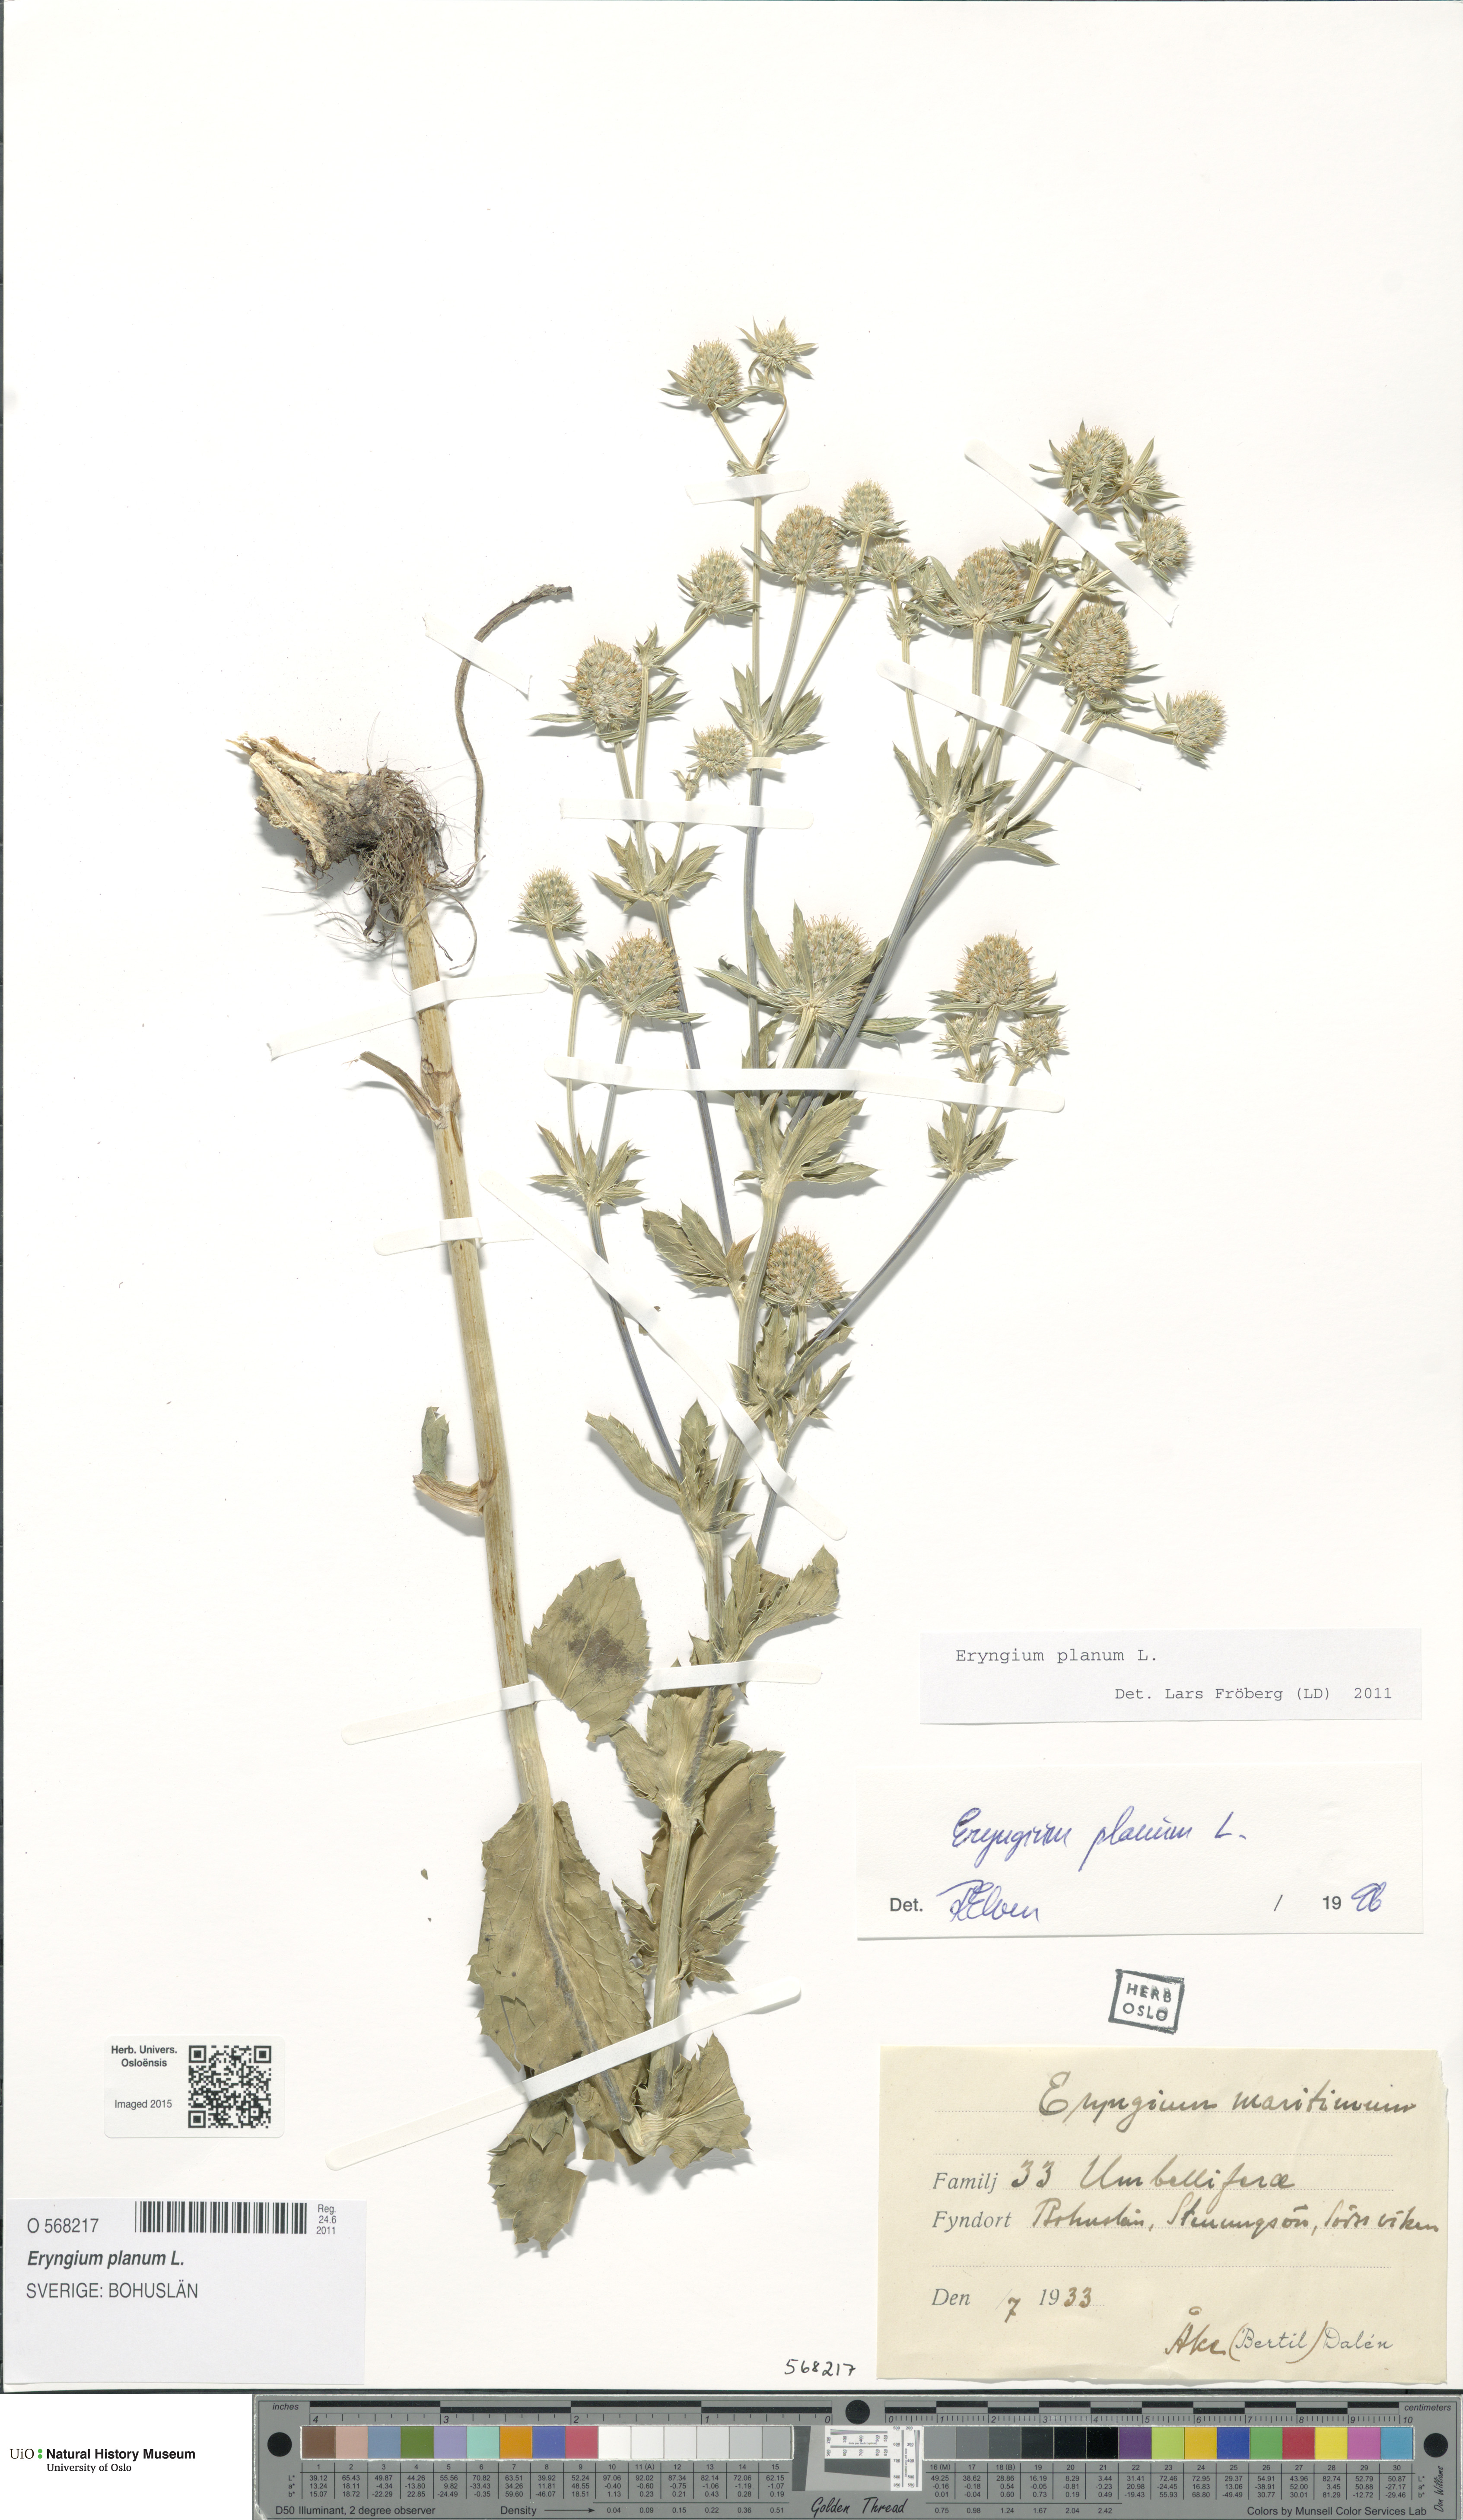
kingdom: Plantae
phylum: Tracheophyta
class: Magnoliopsida
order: Apiales
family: Apiaceae
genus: Eryngium
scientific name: Eryngium planum
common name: Blue eryngo
